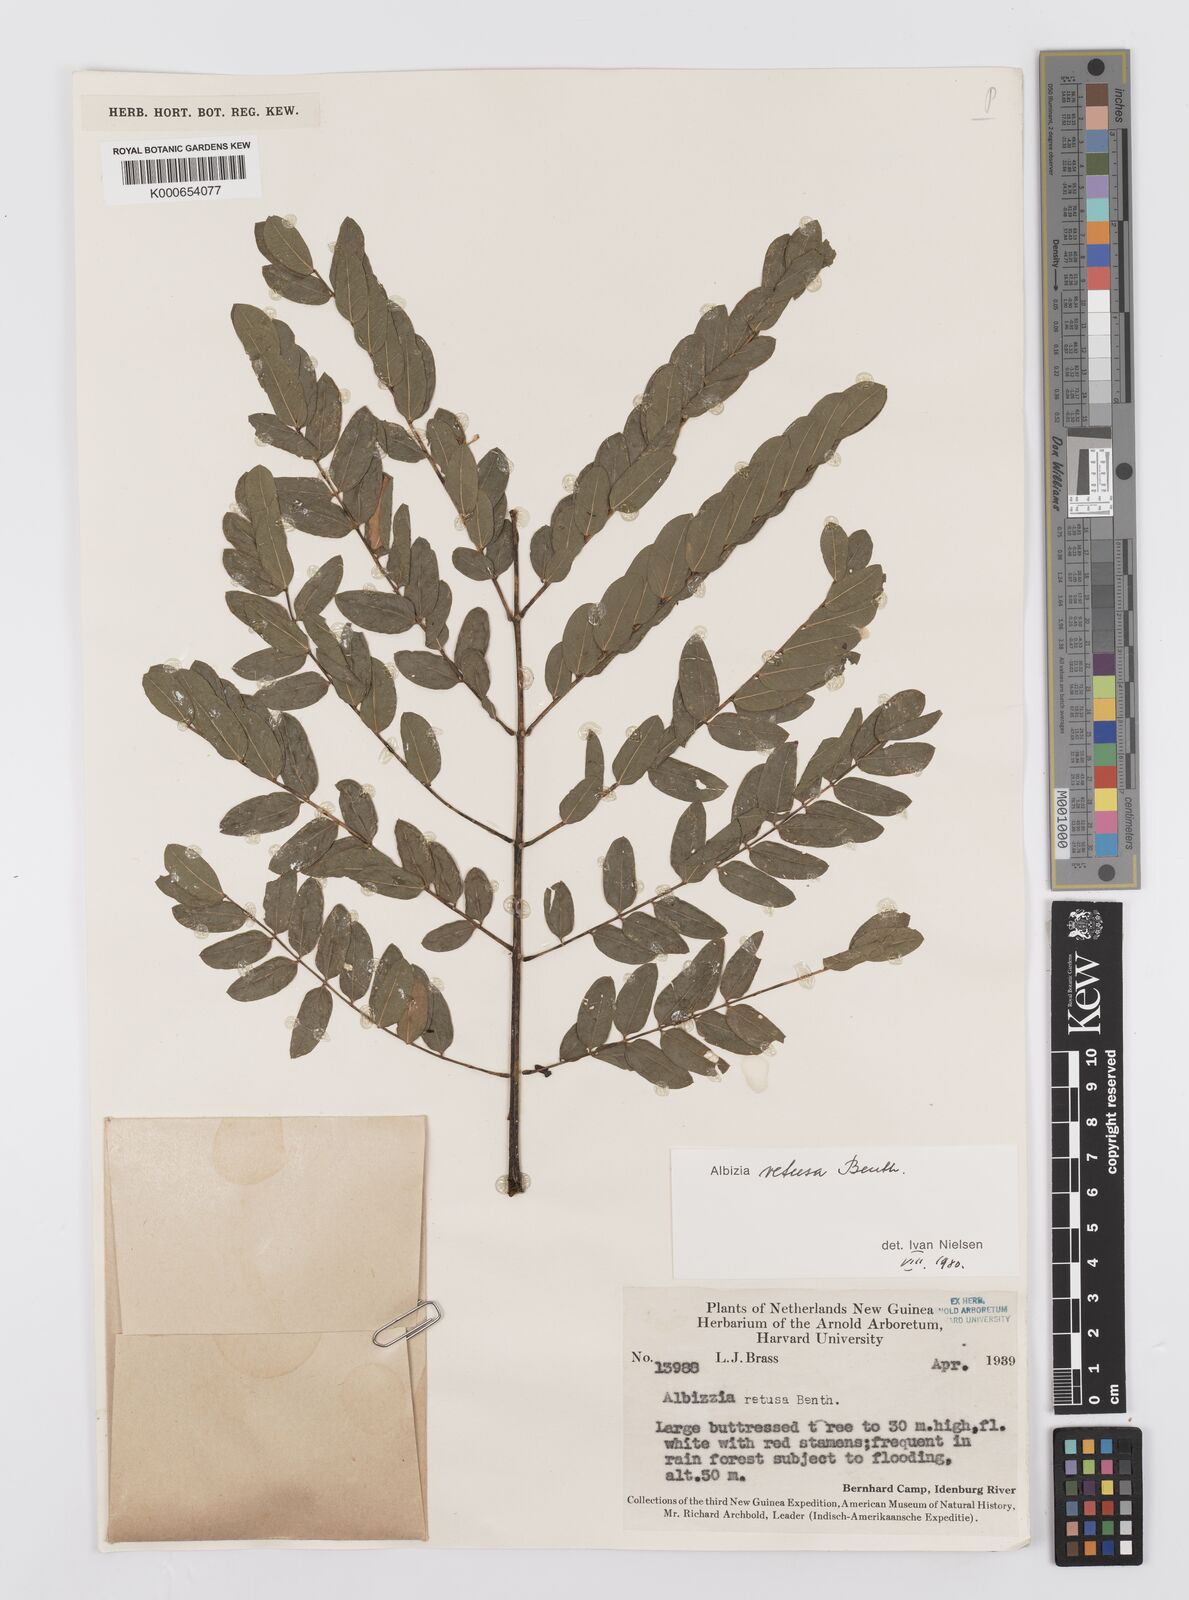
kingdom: Plantae
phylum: Tracheophyta
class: Magnoliopsida
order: Fabales
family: Fabaceae
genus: Albizia
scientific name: Albizia retusa
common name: Sea albizia
